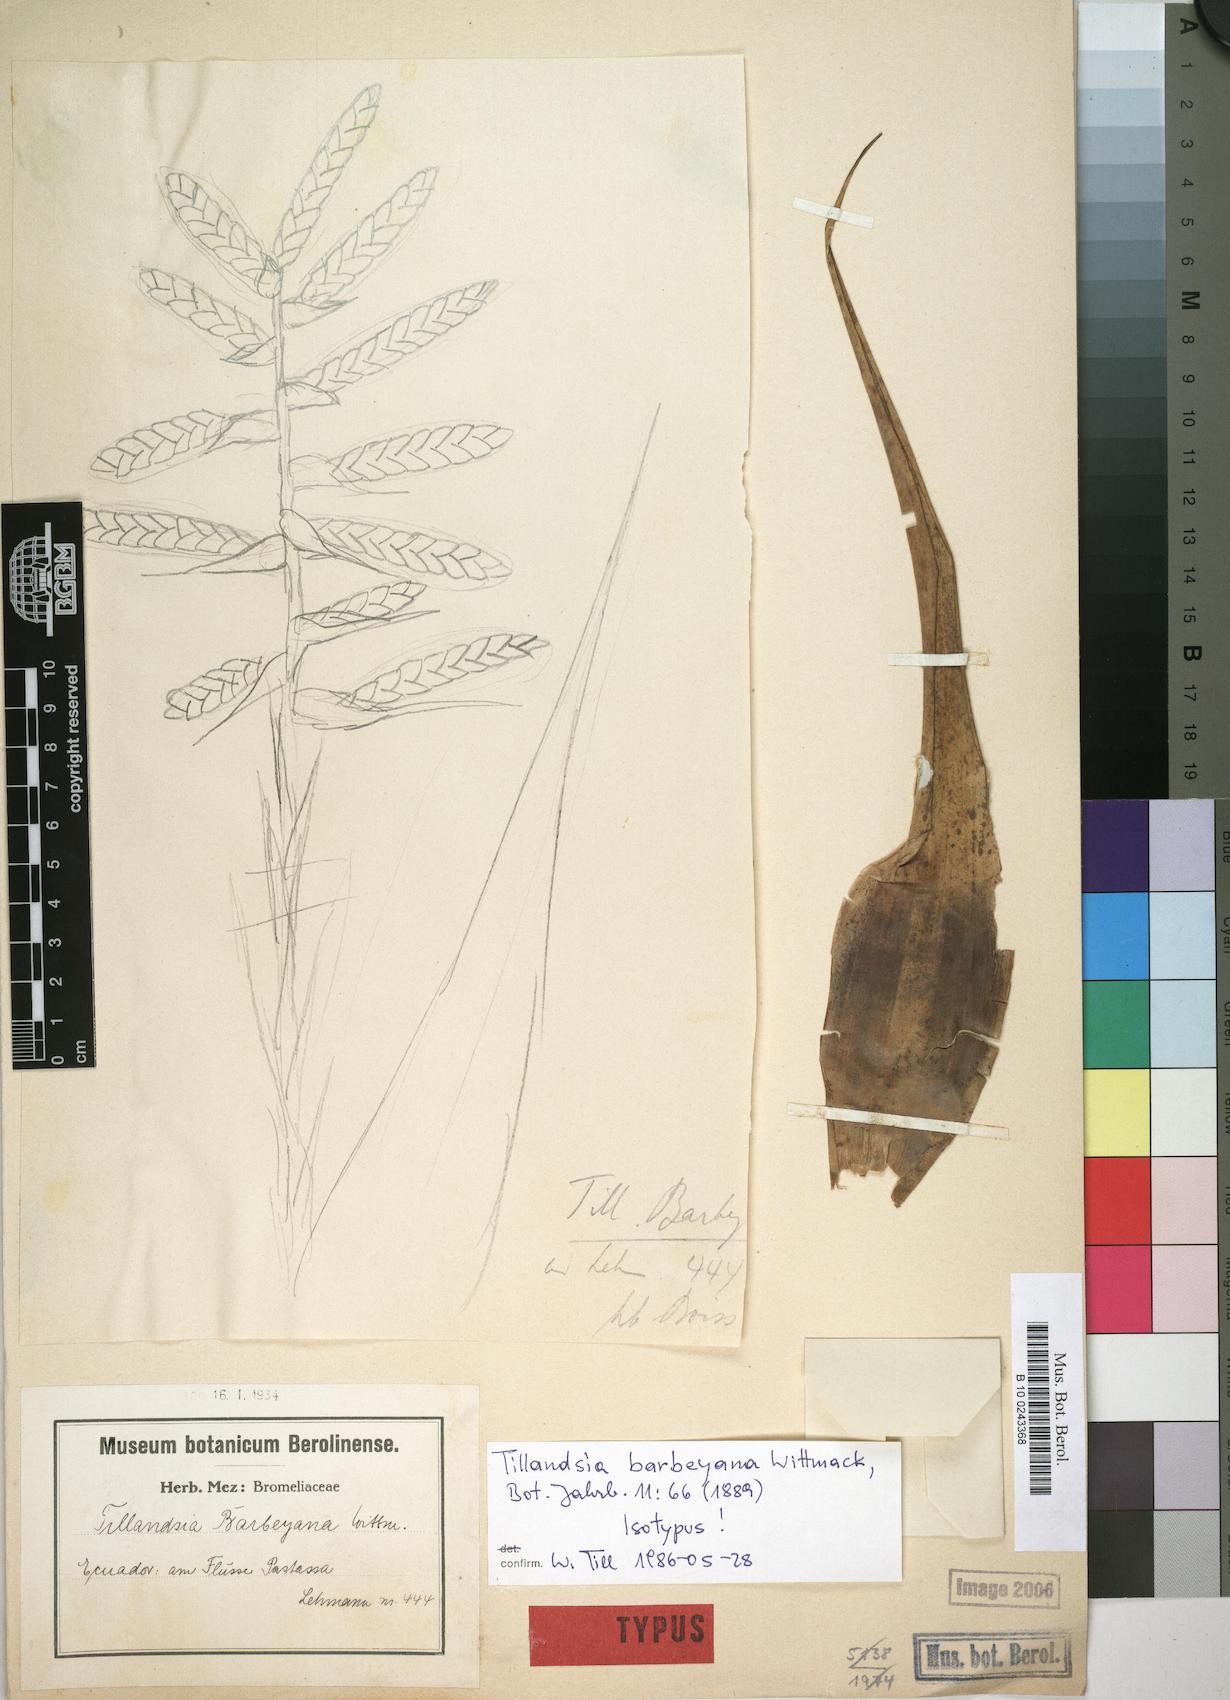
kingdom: Plantae
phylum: Tracheophyta
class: Liliopsida
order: Poales
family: Bromeliaceae
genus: Tillandsia
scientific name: Tillandsia barbeyana
